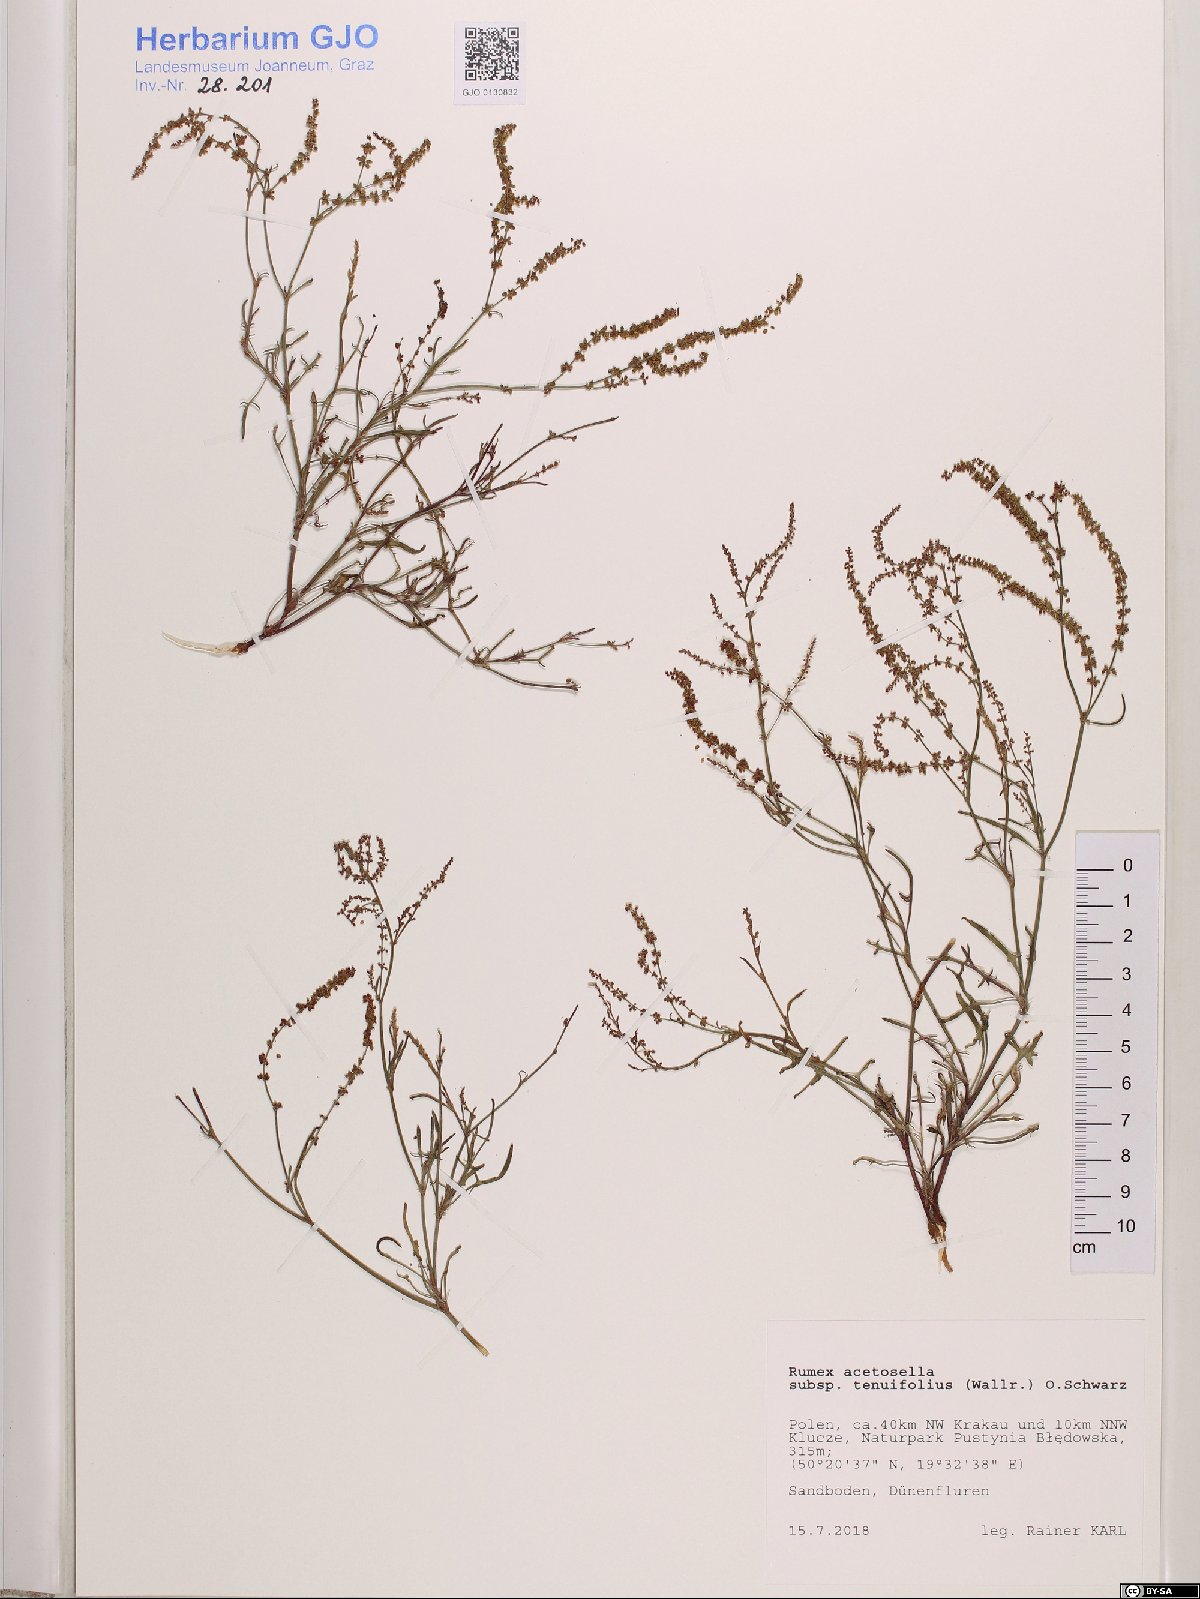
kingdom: Plantae
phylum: Tracheophyta
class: Magnoliopsida
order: Caryophyllales
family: Polygonaceae
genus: Rumex
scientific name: Rumex acetosella
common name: Common sheep sorrel
